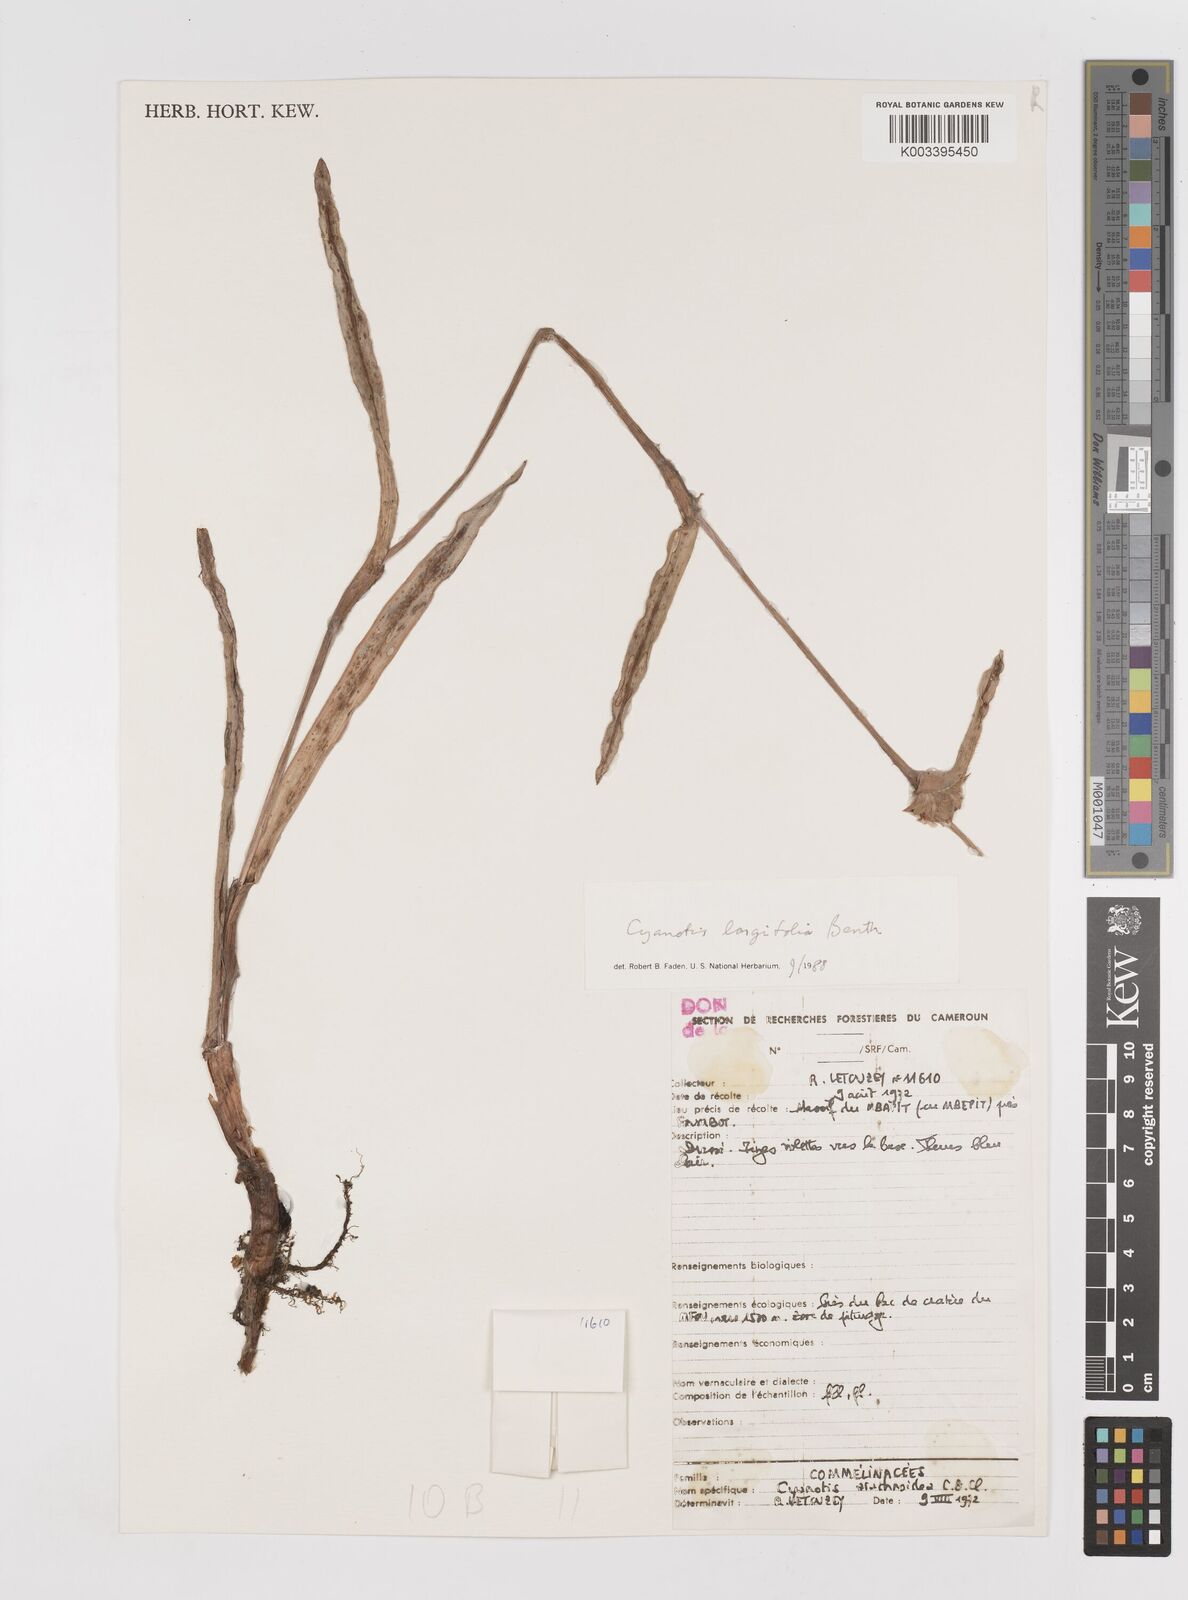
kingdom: Plantae
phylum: Tracheophyta
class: Liliopsida
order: Commelinales
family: Commelinaceae
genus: Cyanotis
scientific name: Cyanotis longifolia
